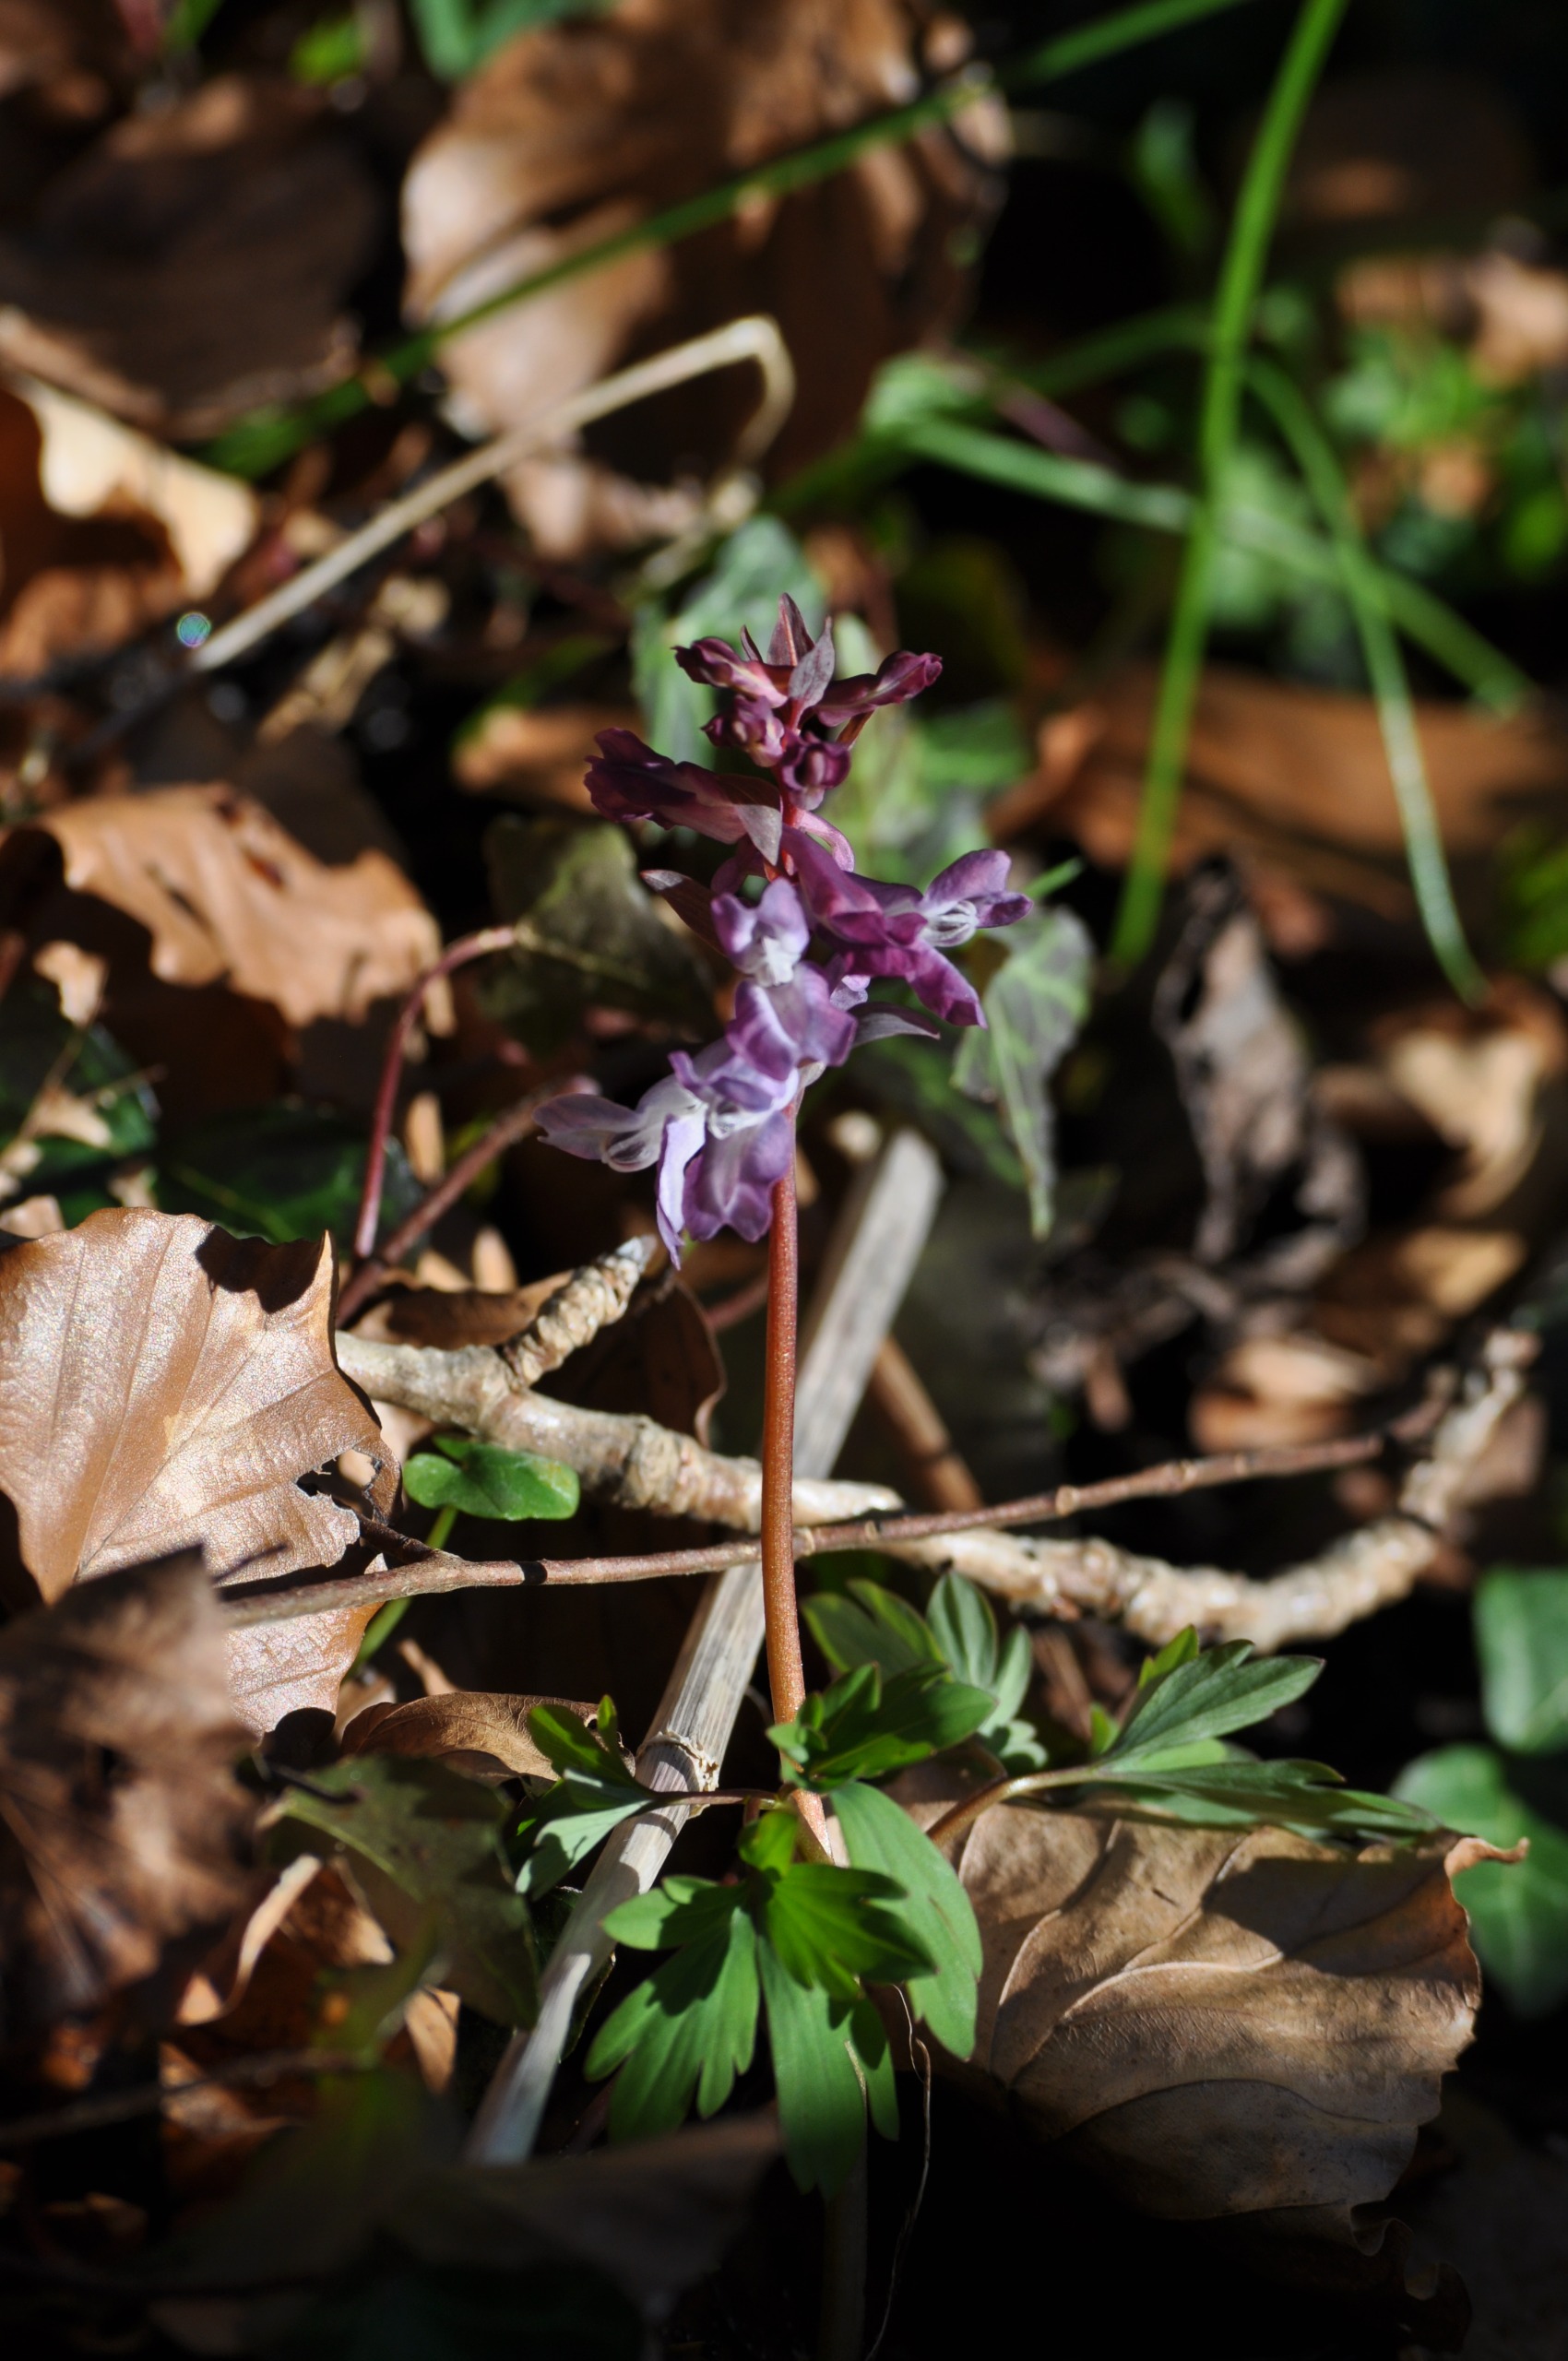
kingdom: Plantae
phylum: Tracheophyta
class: Magnoliopsida
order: Ranunculales
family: Papaveraceae
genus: Corydalis
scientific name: Corydalis cava
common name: Hulrodet lærkespore
